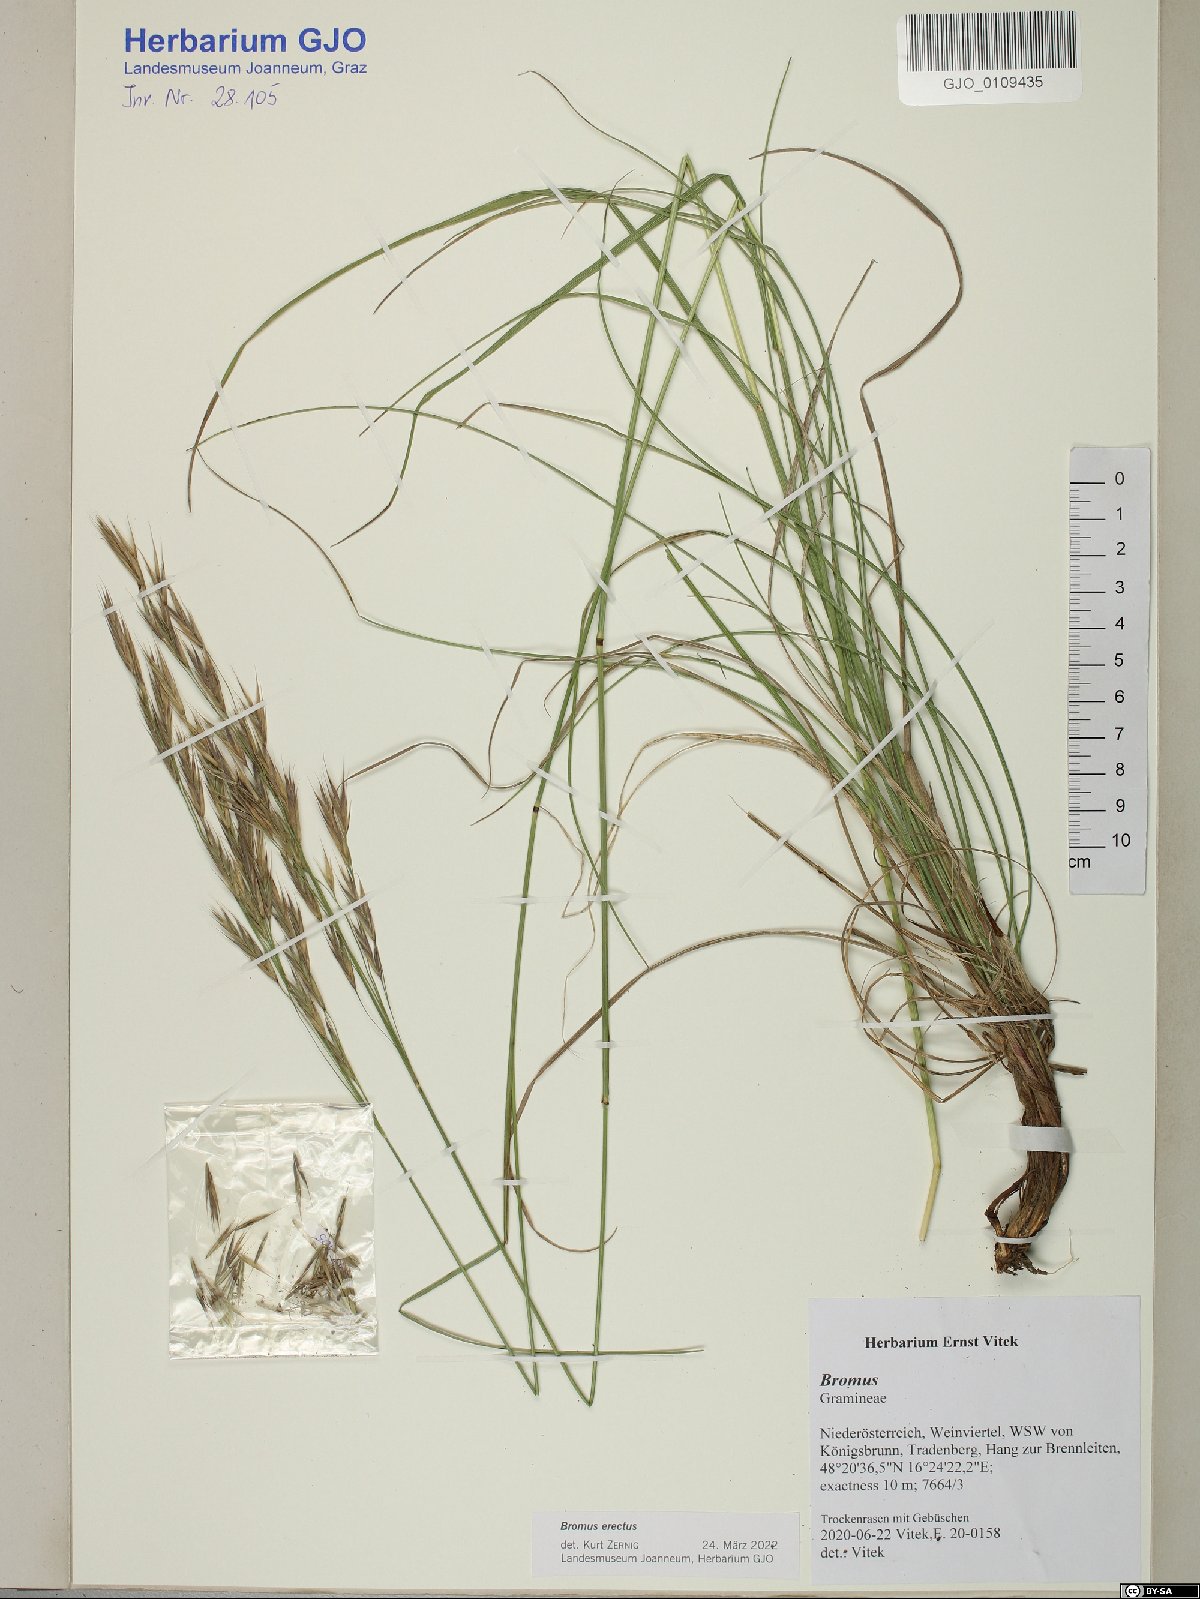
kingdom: Plantae
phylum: Tracheophyta
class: Liliopsida
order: Poales
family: Poaceae
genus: Bromus
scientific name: Bromus erectus
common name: Erect brome
